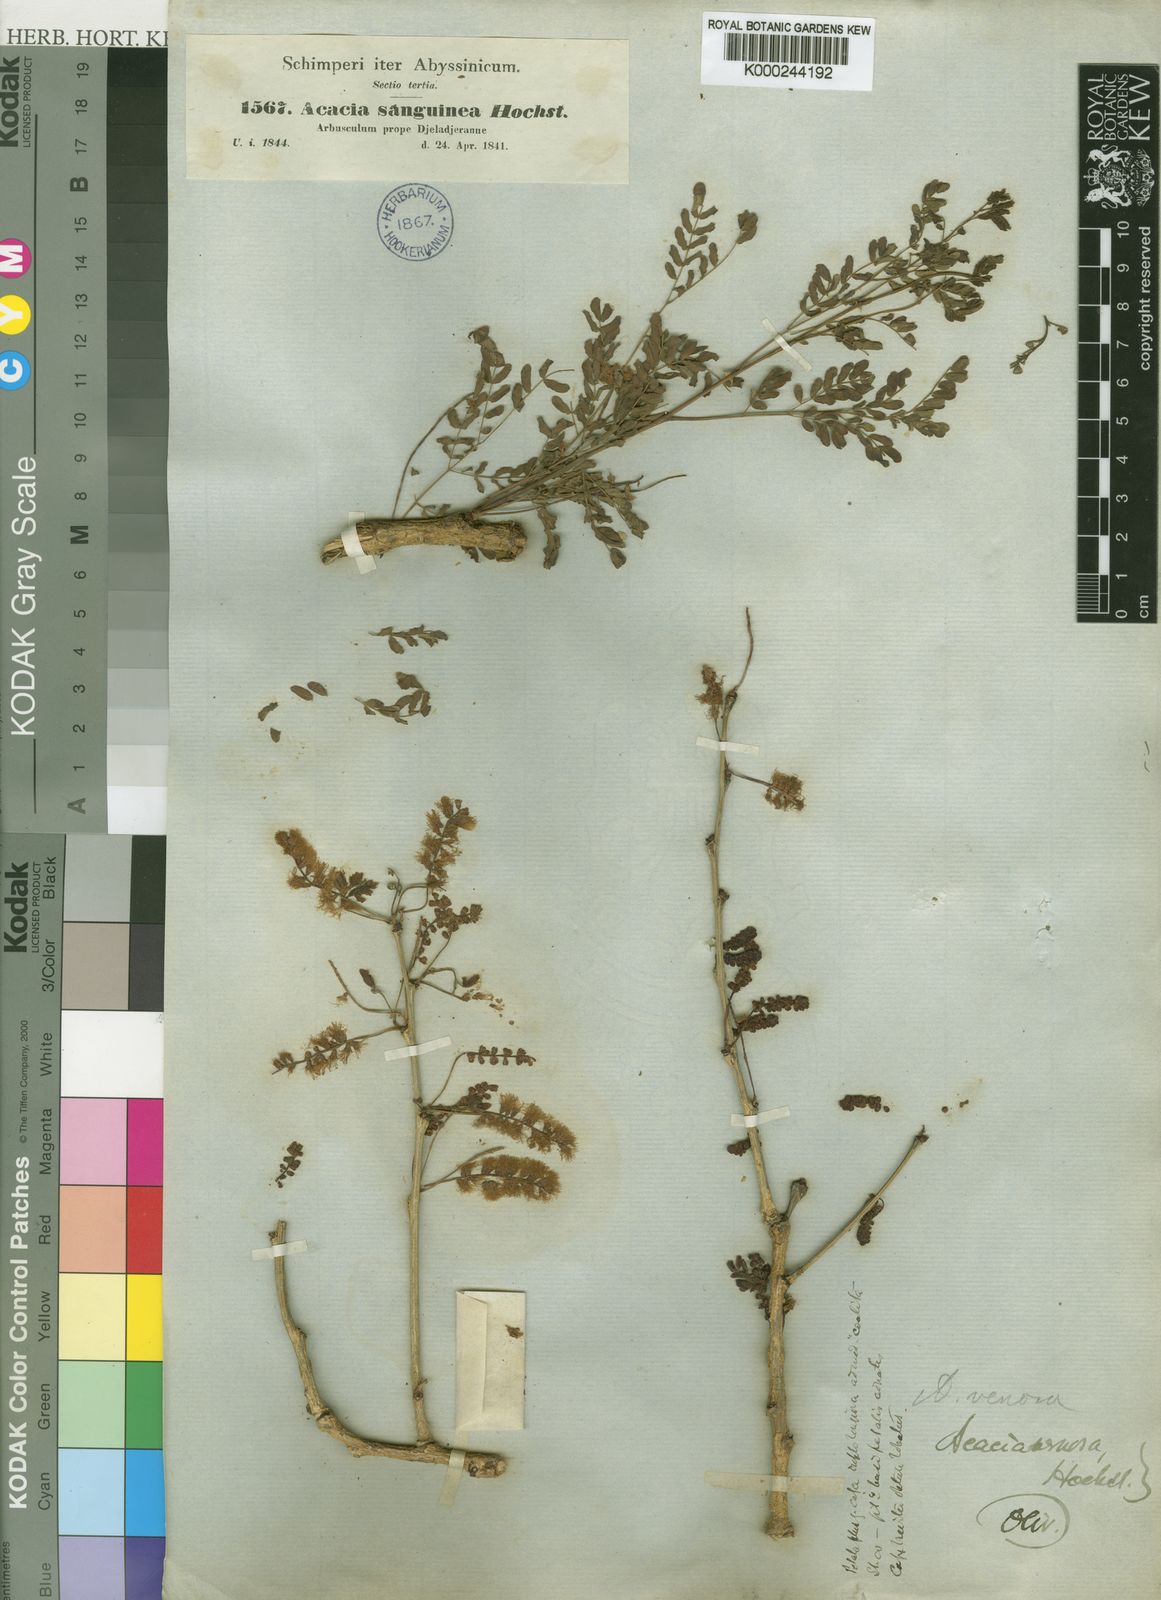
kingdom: Plantae
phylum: Tracheophyta
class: Magnoliopsida
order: Fabales
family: Fabaceae
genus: Senegalia
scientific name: Senegalia venosa
